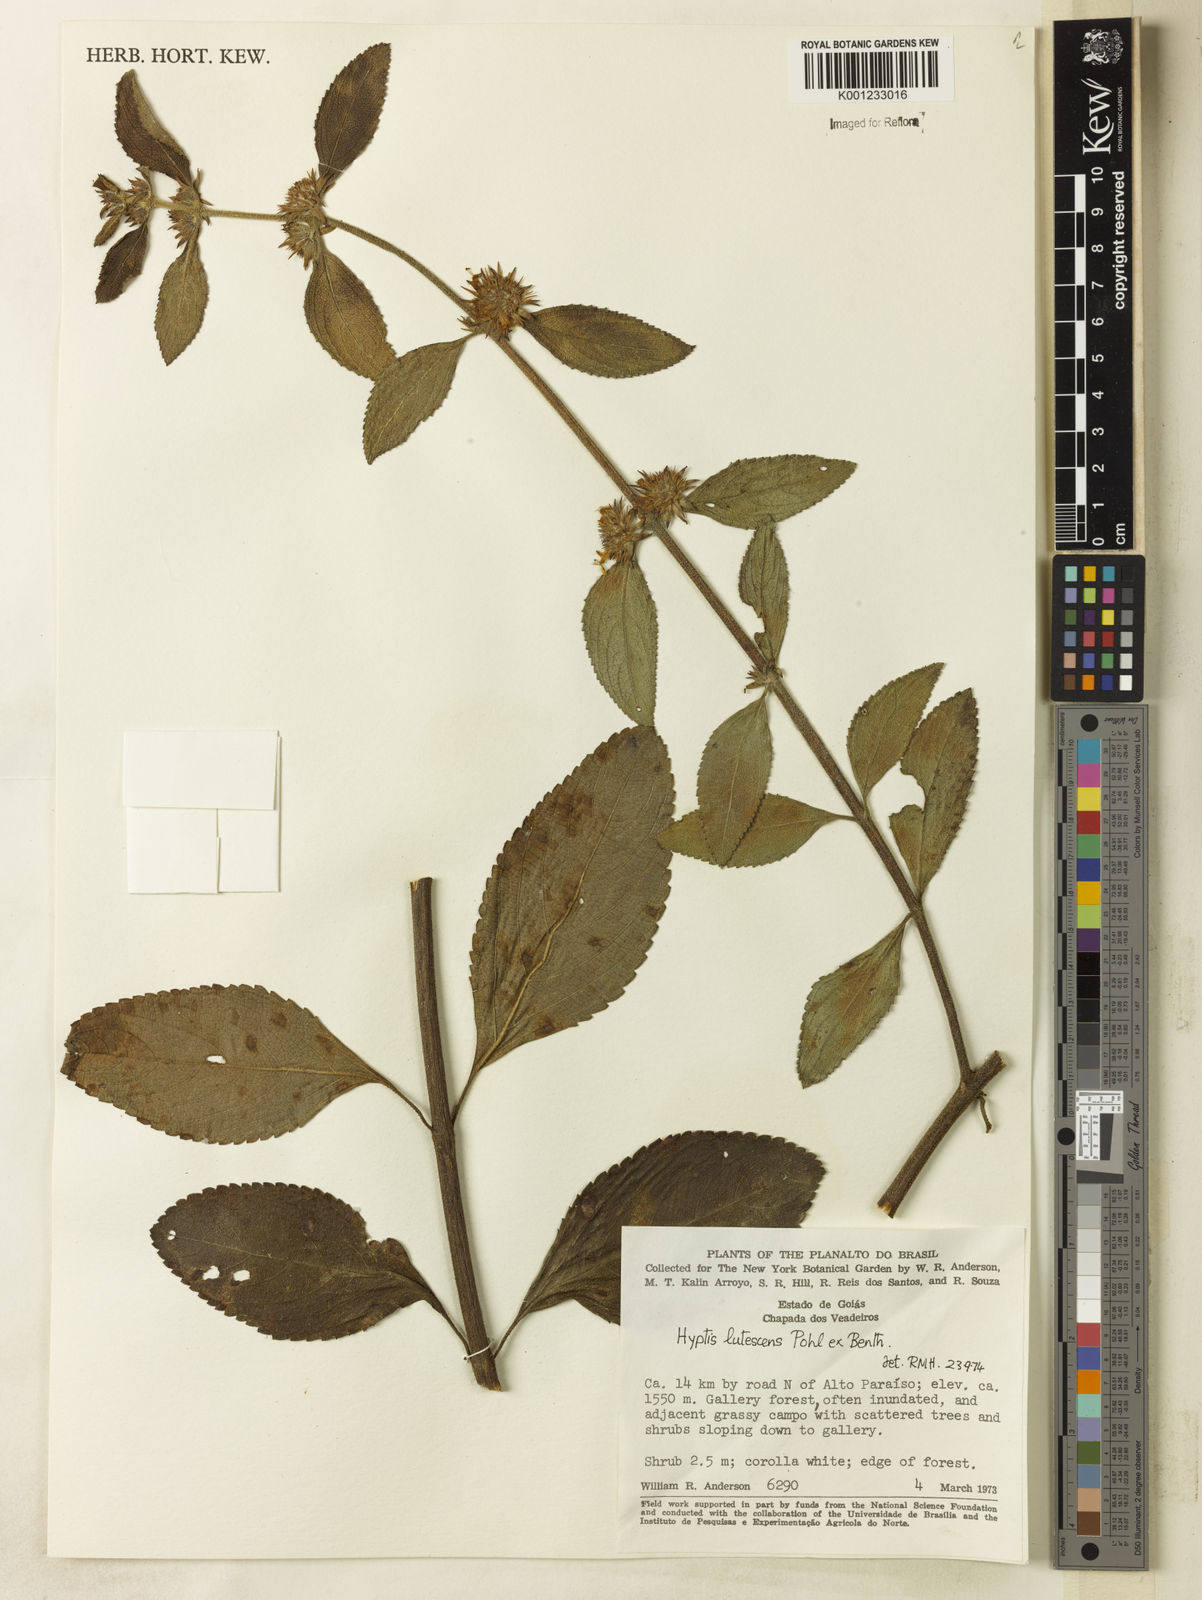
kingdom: Plantae
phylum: Tracheophyta
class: Magnoliopsida
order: Lamiales
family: Lamiaceae
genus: Hyptis
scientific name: Hyptis lutescens
